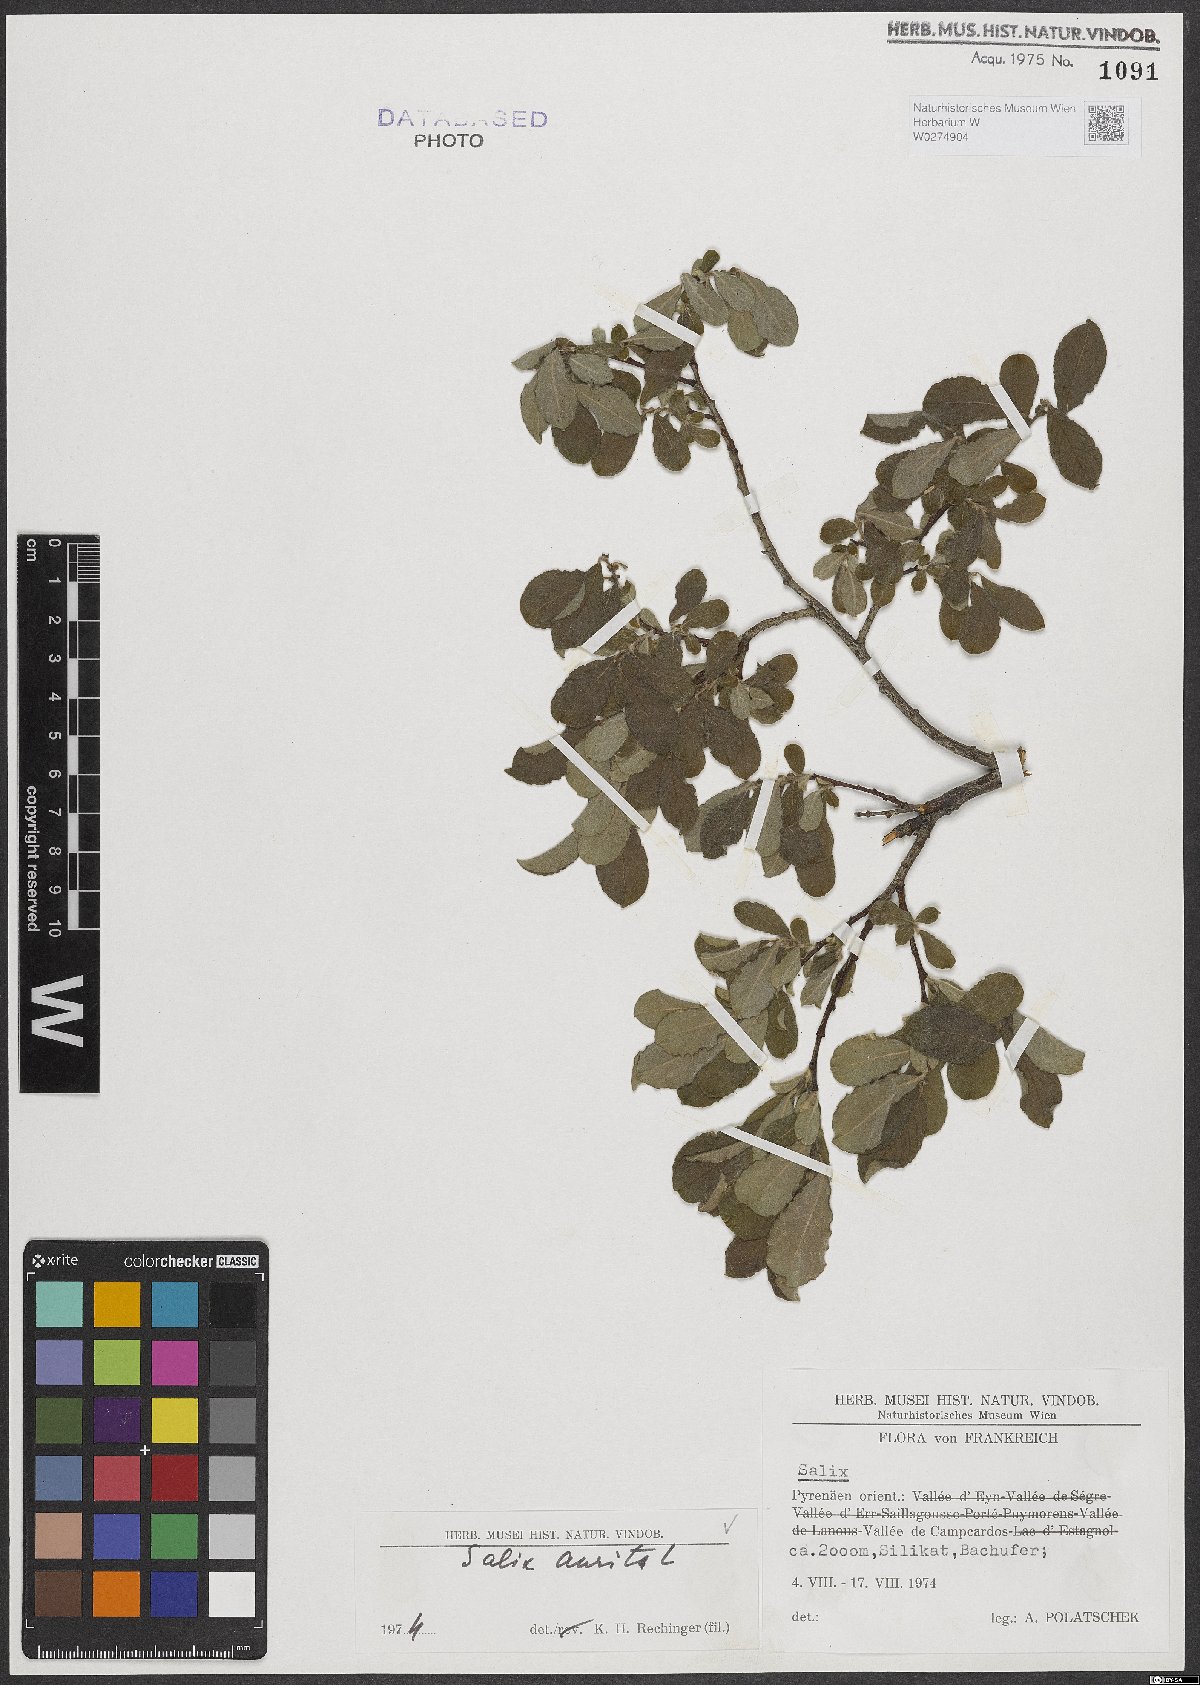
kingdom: Plantae
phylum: Tracheophyta
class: Magnoliopsida
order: Malpighiales
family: Salicaceae
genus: Salix
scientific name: Salix aurita
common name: Eared willow
